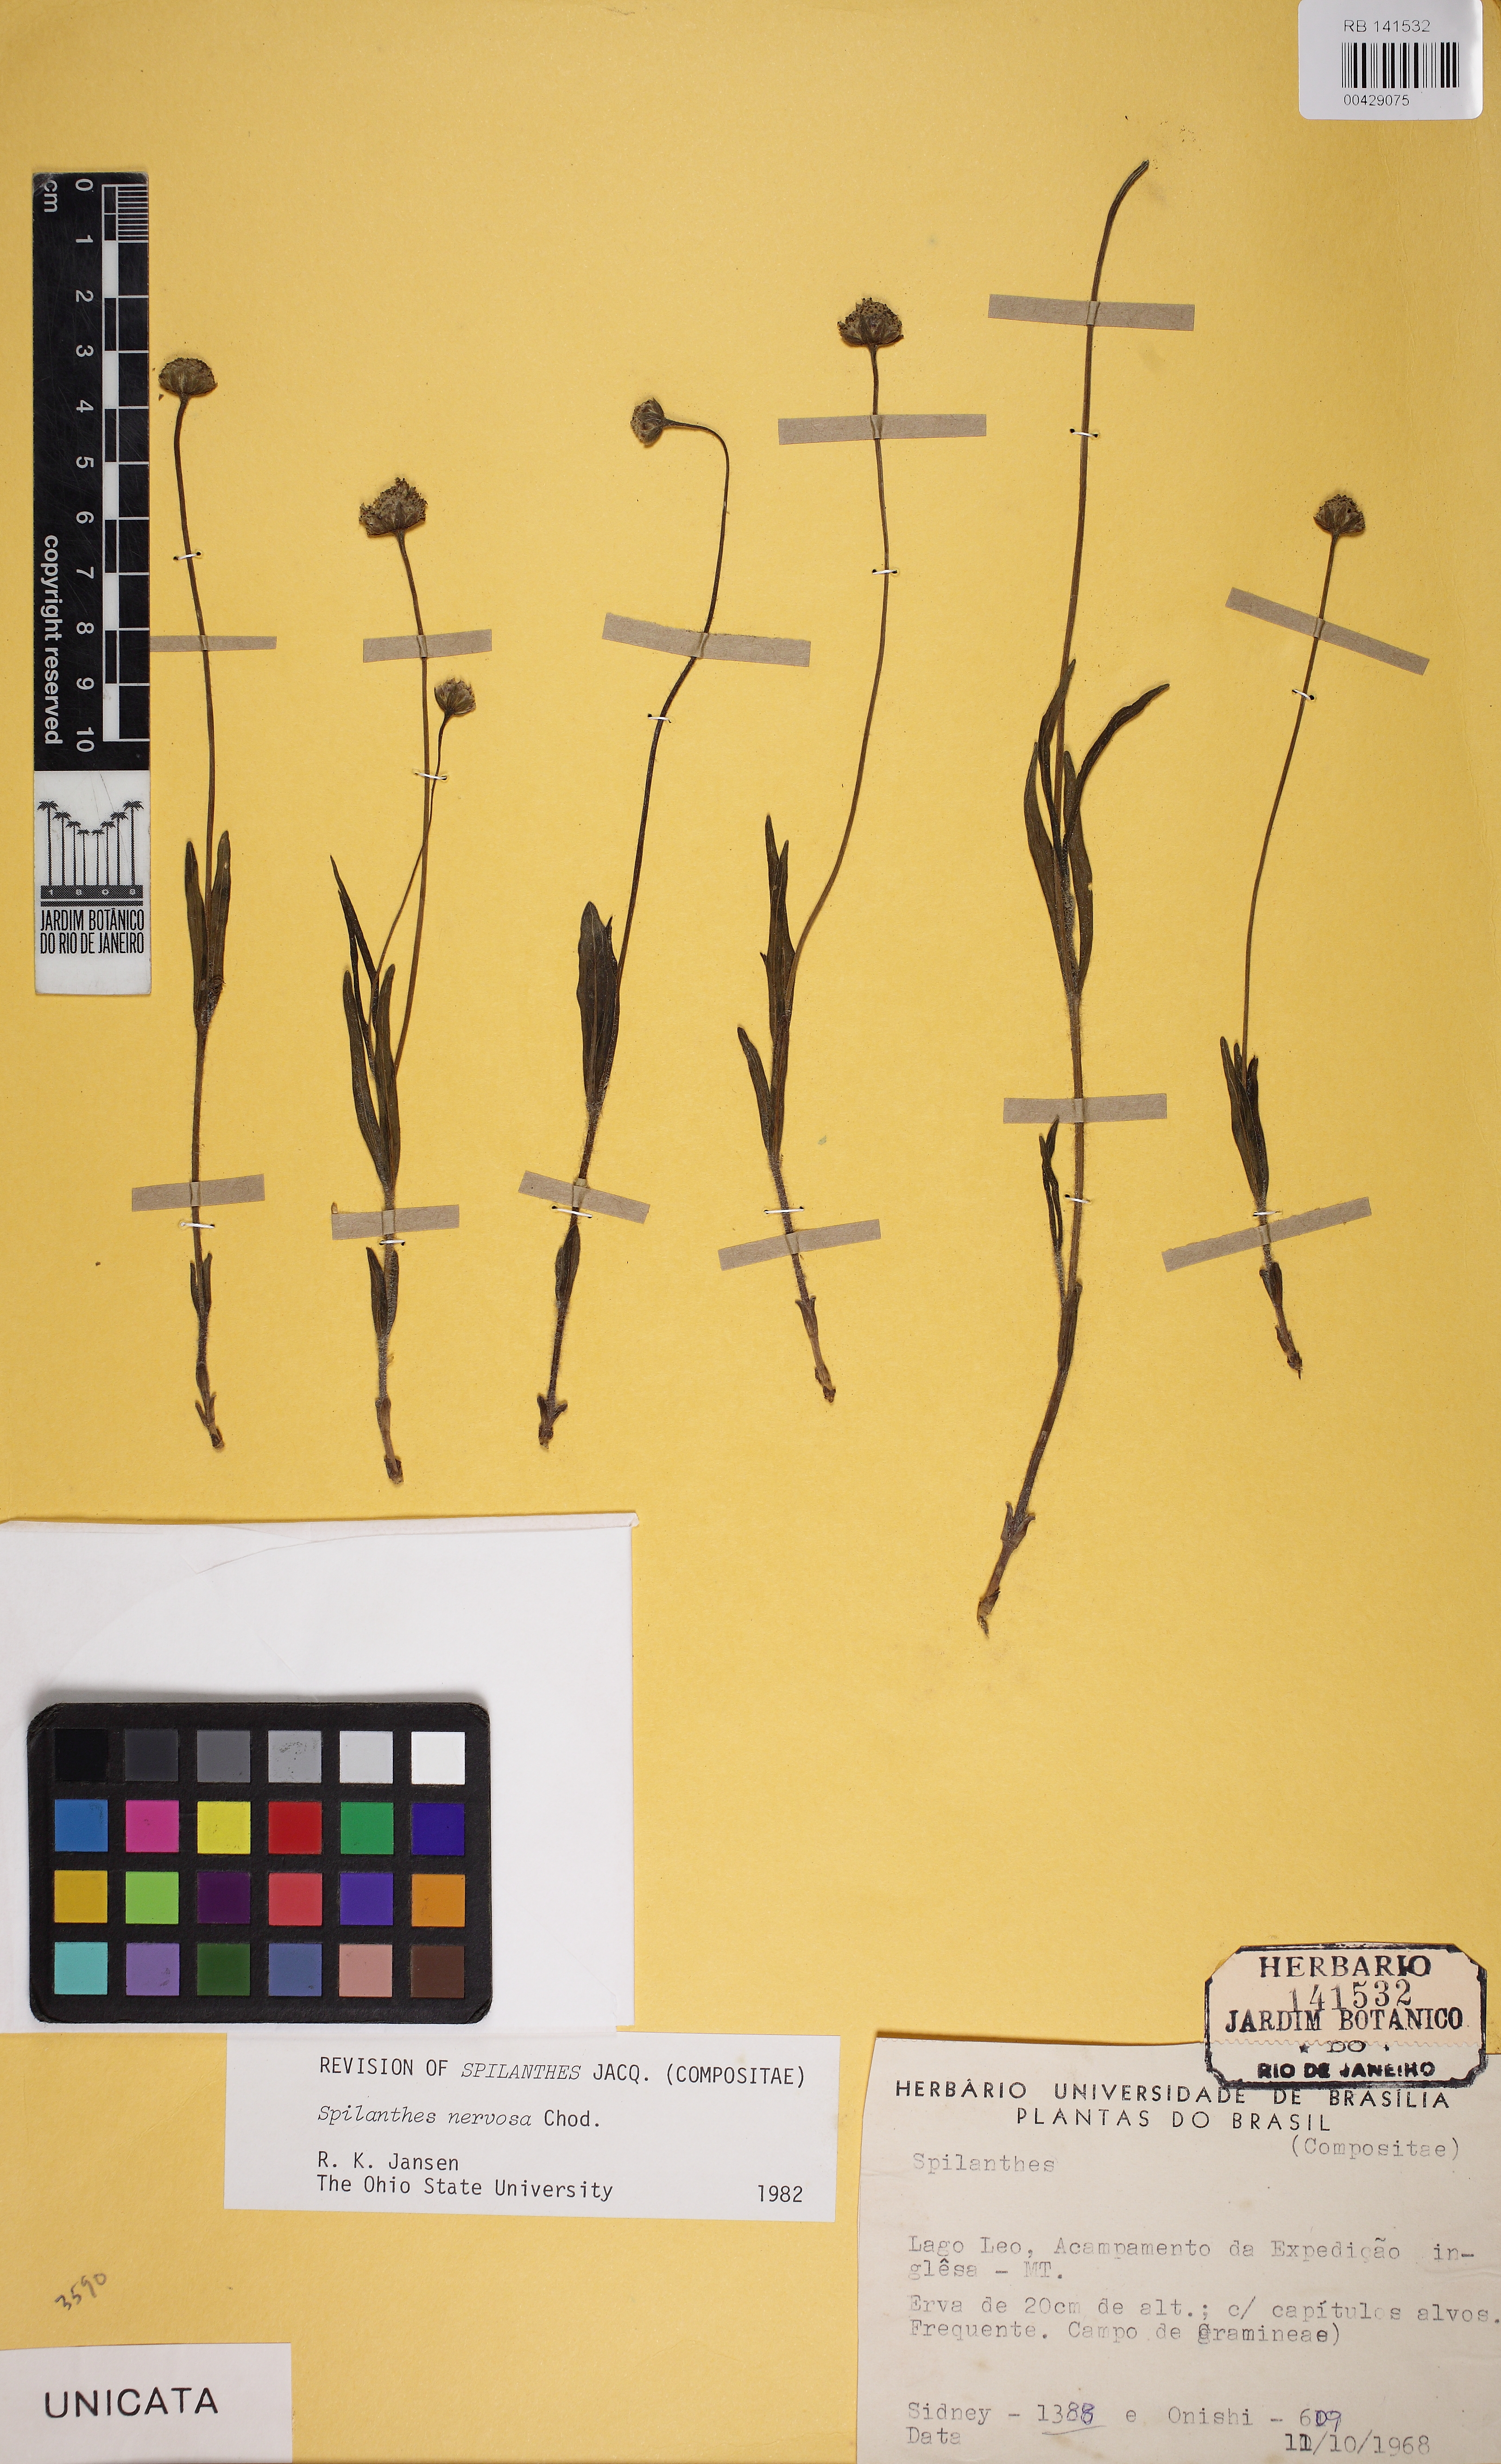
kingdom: Plantae
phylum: Tracheophyta
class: Magnoliopsida
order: Asterales
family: Asteraceae
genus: Spilanthes
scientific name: Spilanthes nervosa
